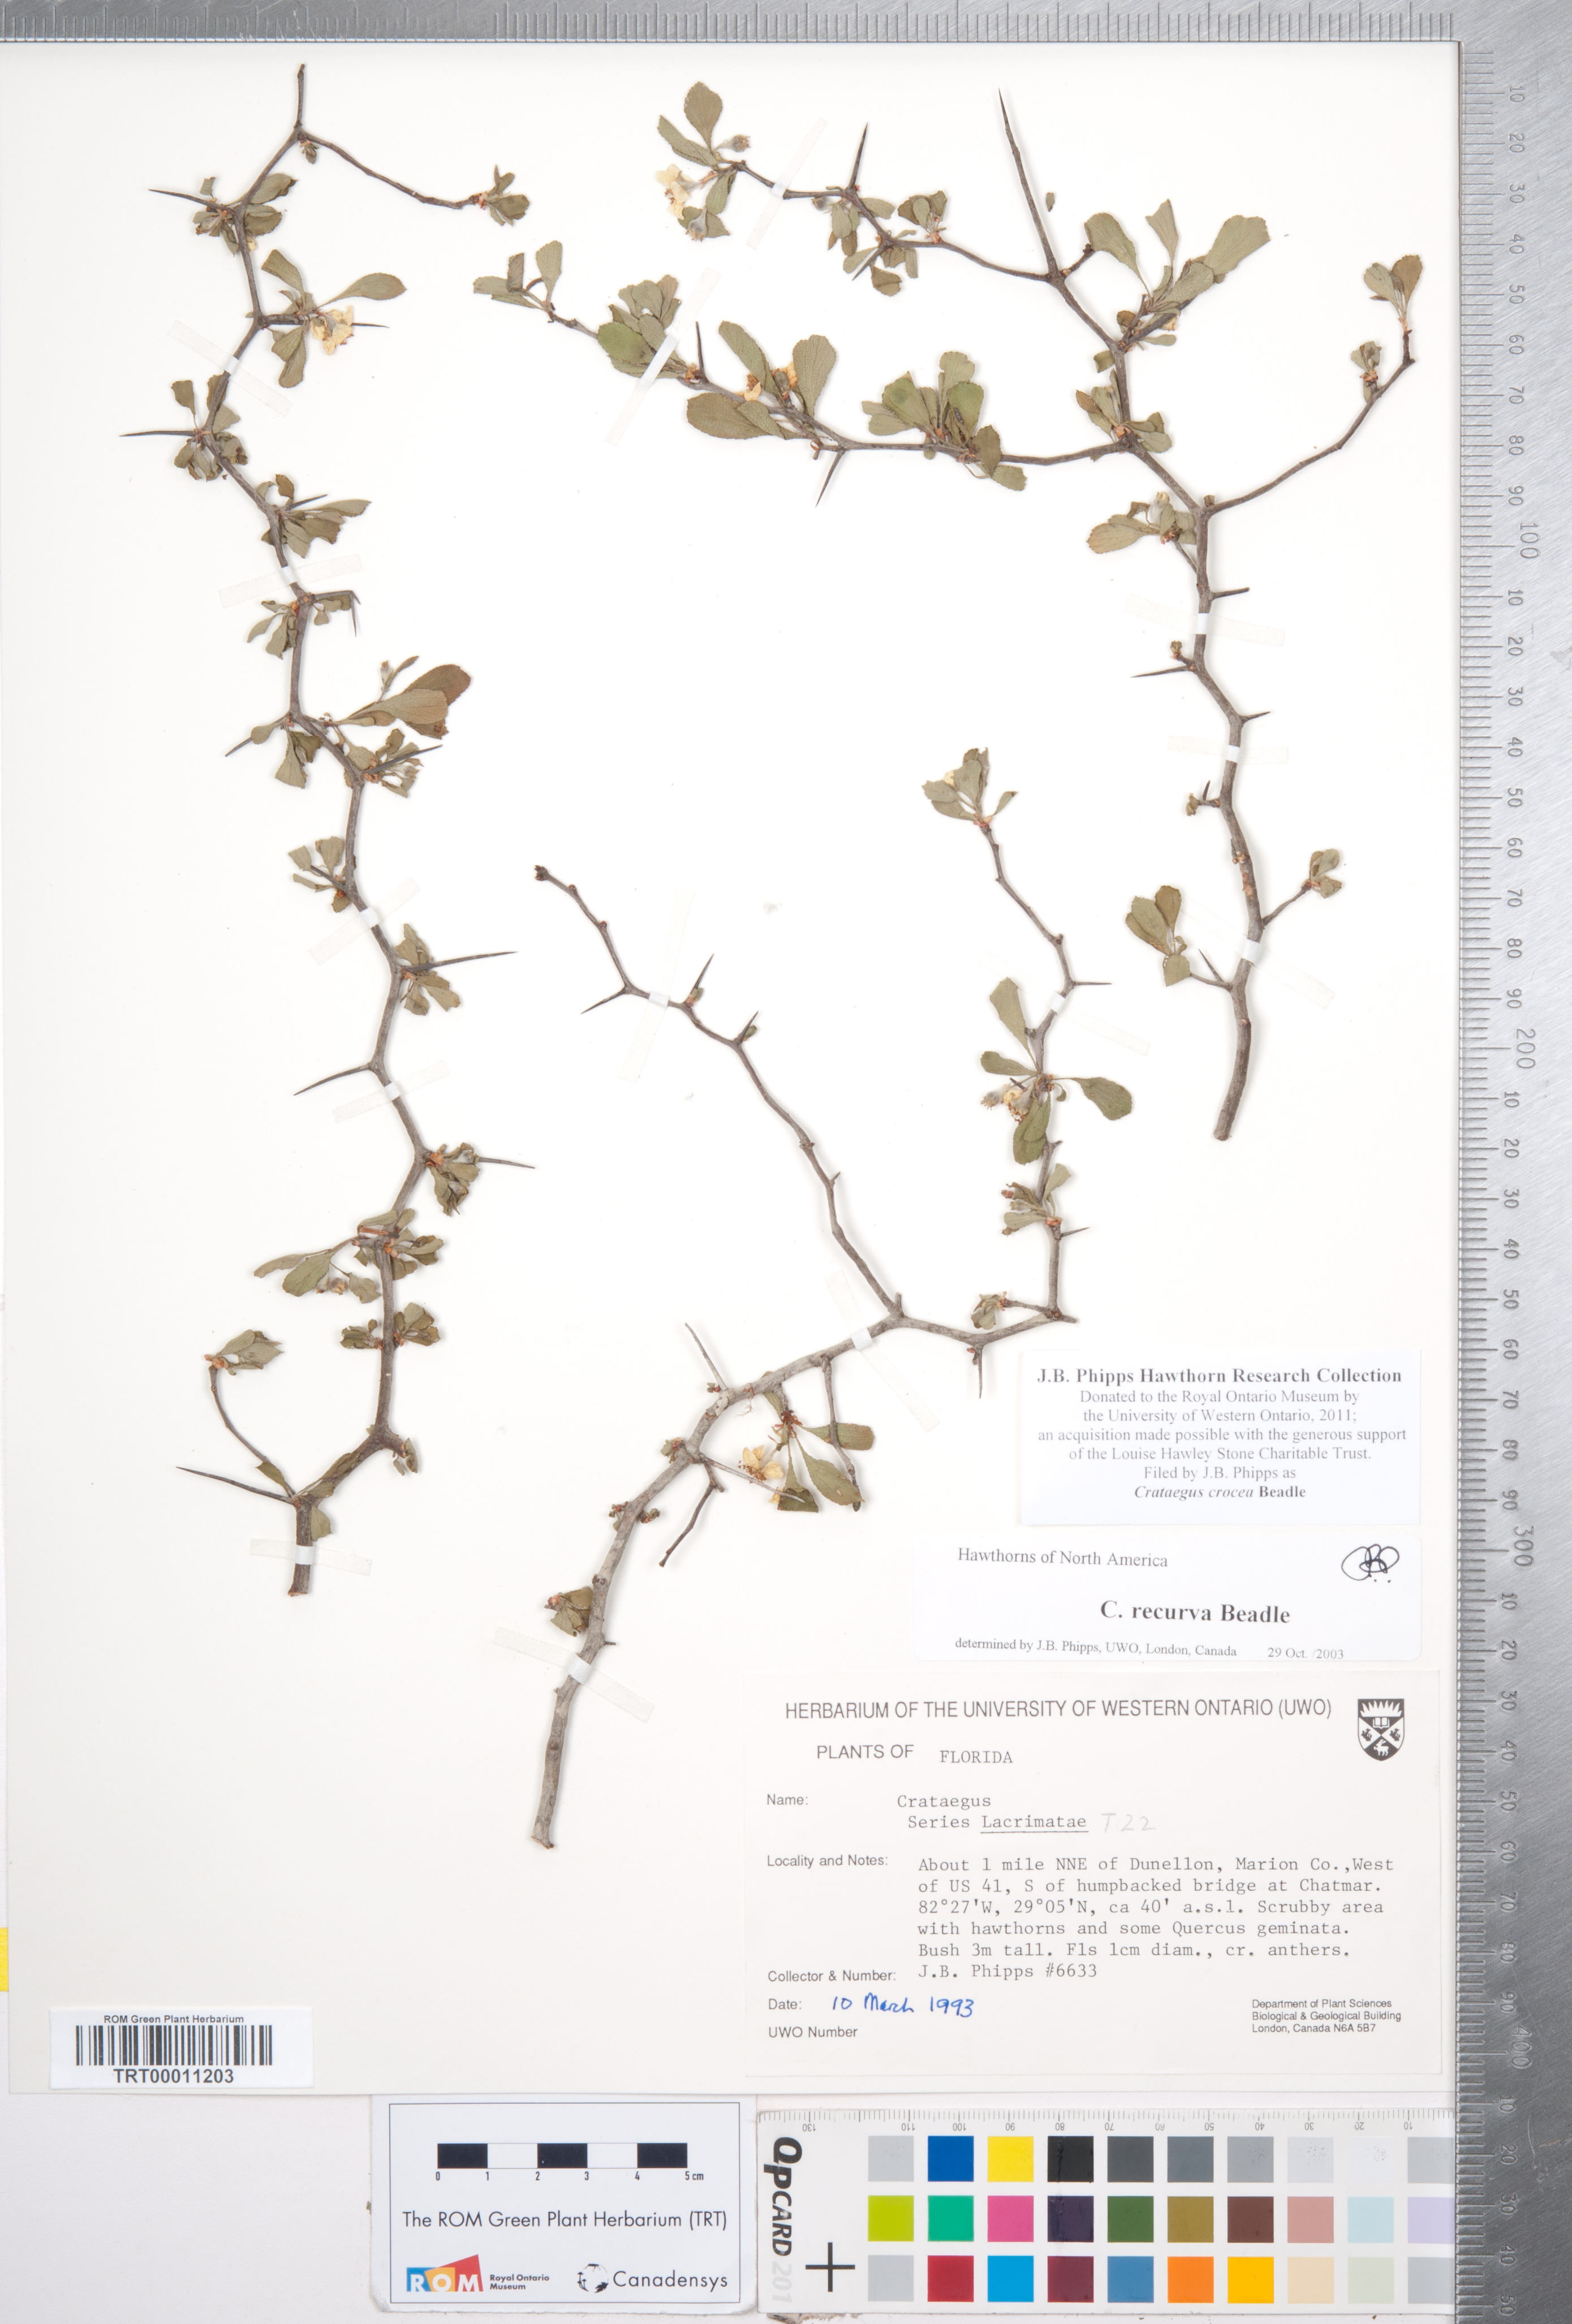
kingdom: Plantae
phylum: Tracheophyta
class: Magnoliopsida
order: Rosales
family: Rosaceae
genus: Crataegus
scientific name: Crataegus lassa
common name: Florida hawthorn
